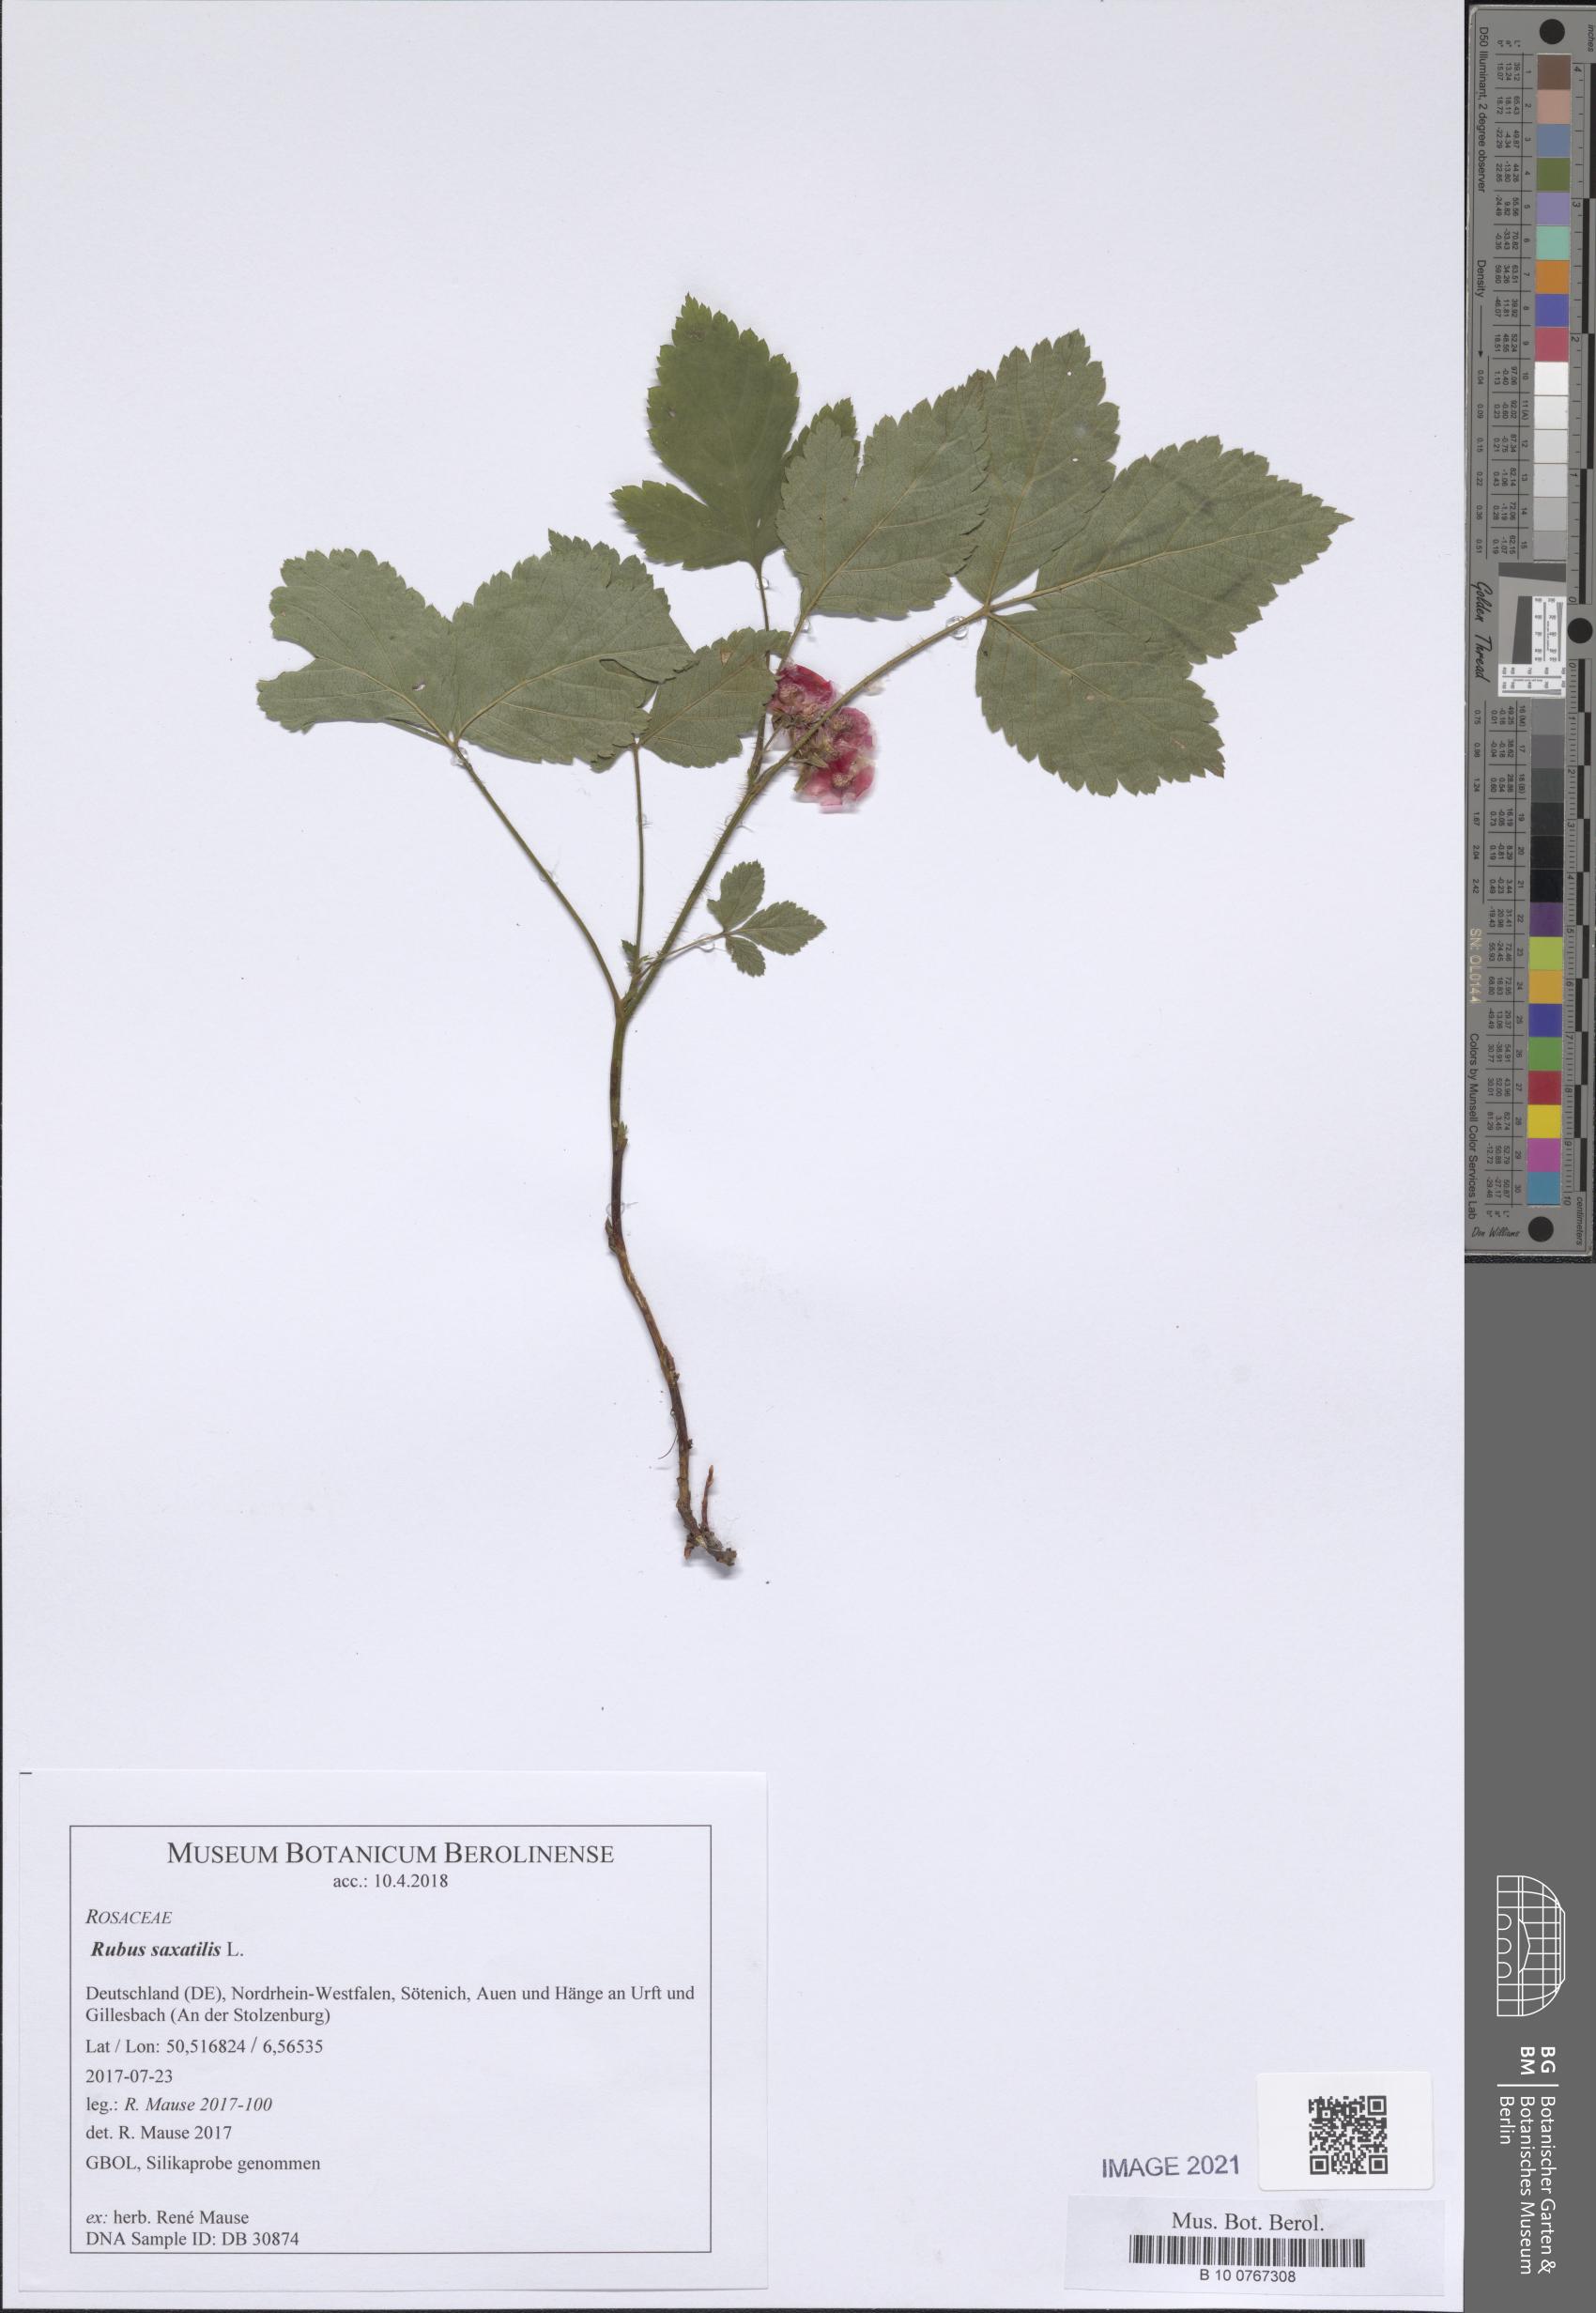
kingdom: Plantae
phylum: Tracheophyta
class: Magnoliopsida
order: Rosales
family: Rosaceae
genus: Rubus
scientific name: Rubus saxatilis
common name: Stone bramble
